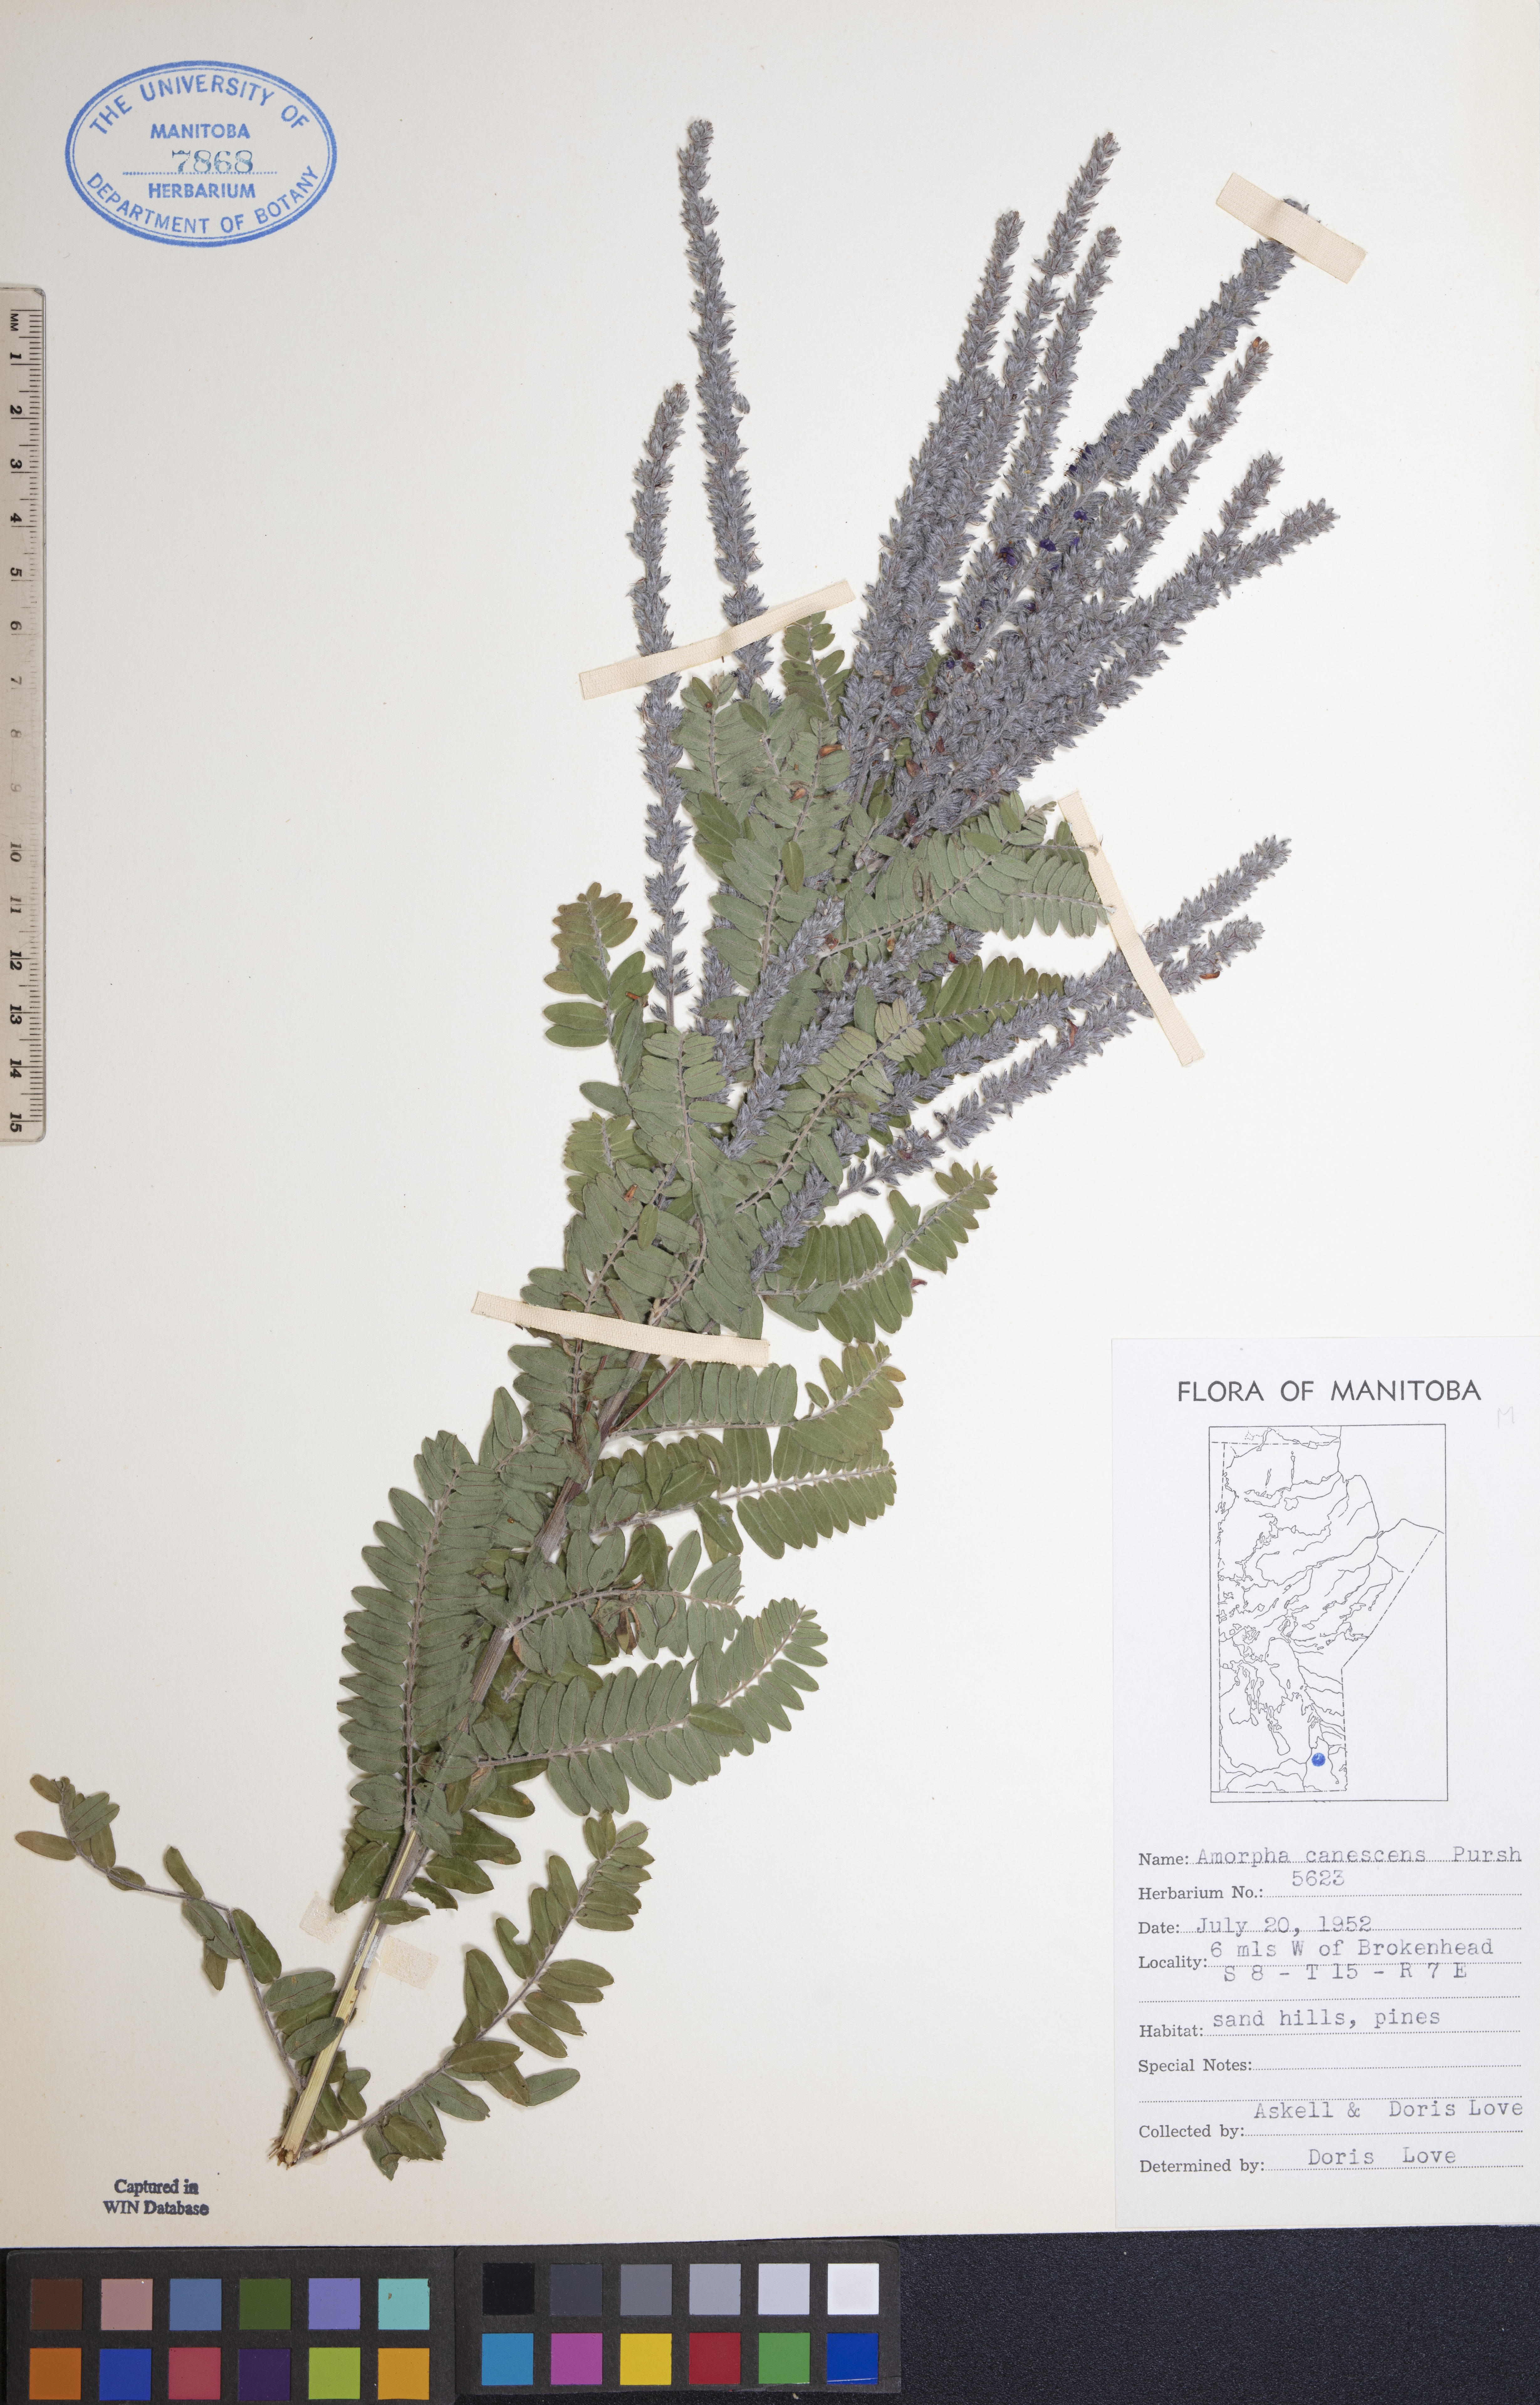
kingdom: Plantae
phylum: Tracheophyta
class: Magnoliopsida
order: Fabales
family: Fabaceae
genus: Amorpha
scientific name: Amorpha canescens
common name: Leadplant
